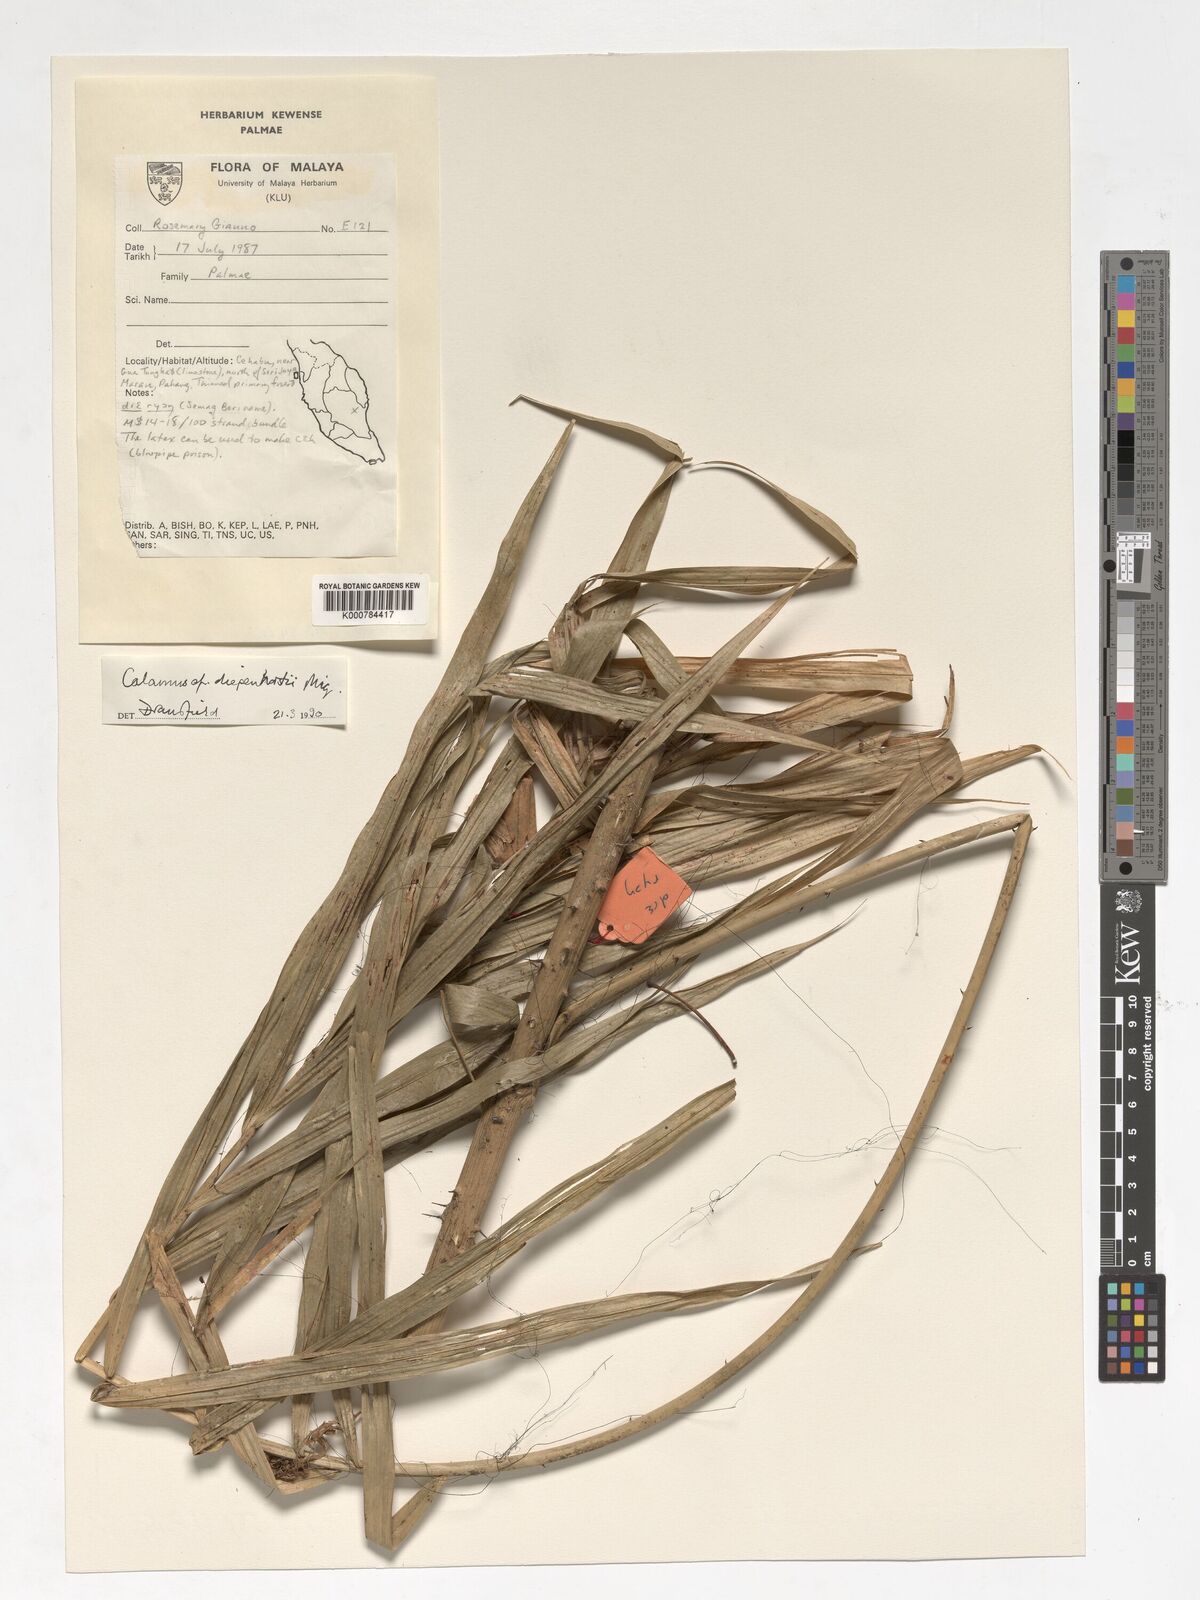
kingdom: Plantae
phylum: Tracheophyta
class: Liliopsida
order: Arecales
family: Arecaceae
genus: Calamus
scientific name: Calamus diepenhorstii
